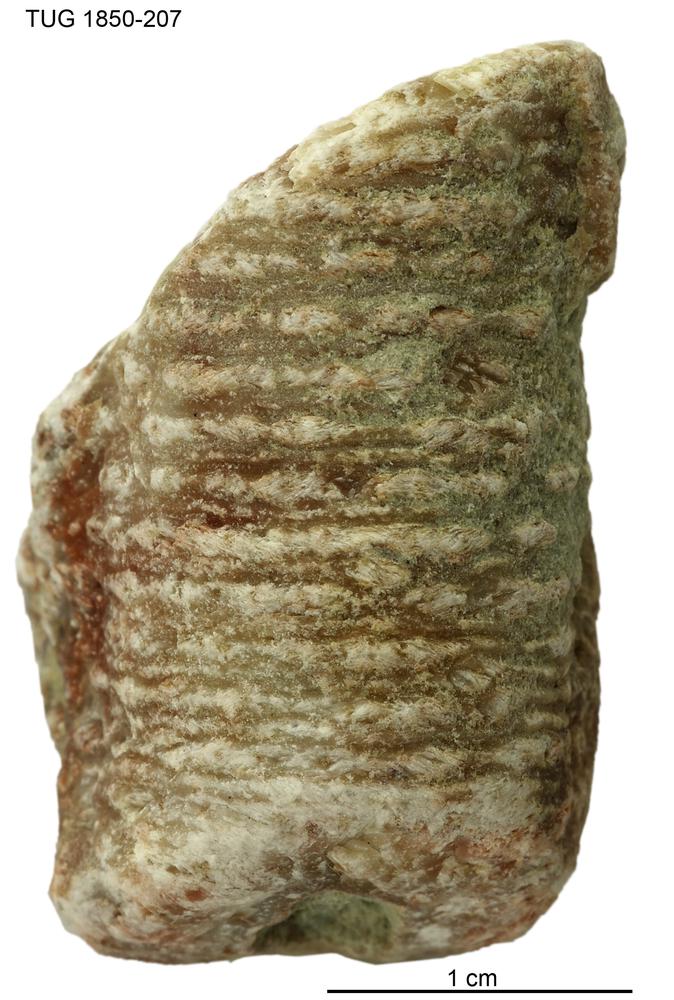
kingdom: Animalia
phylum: Echinodermata
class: Crinoidea
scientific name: Crinoidea
